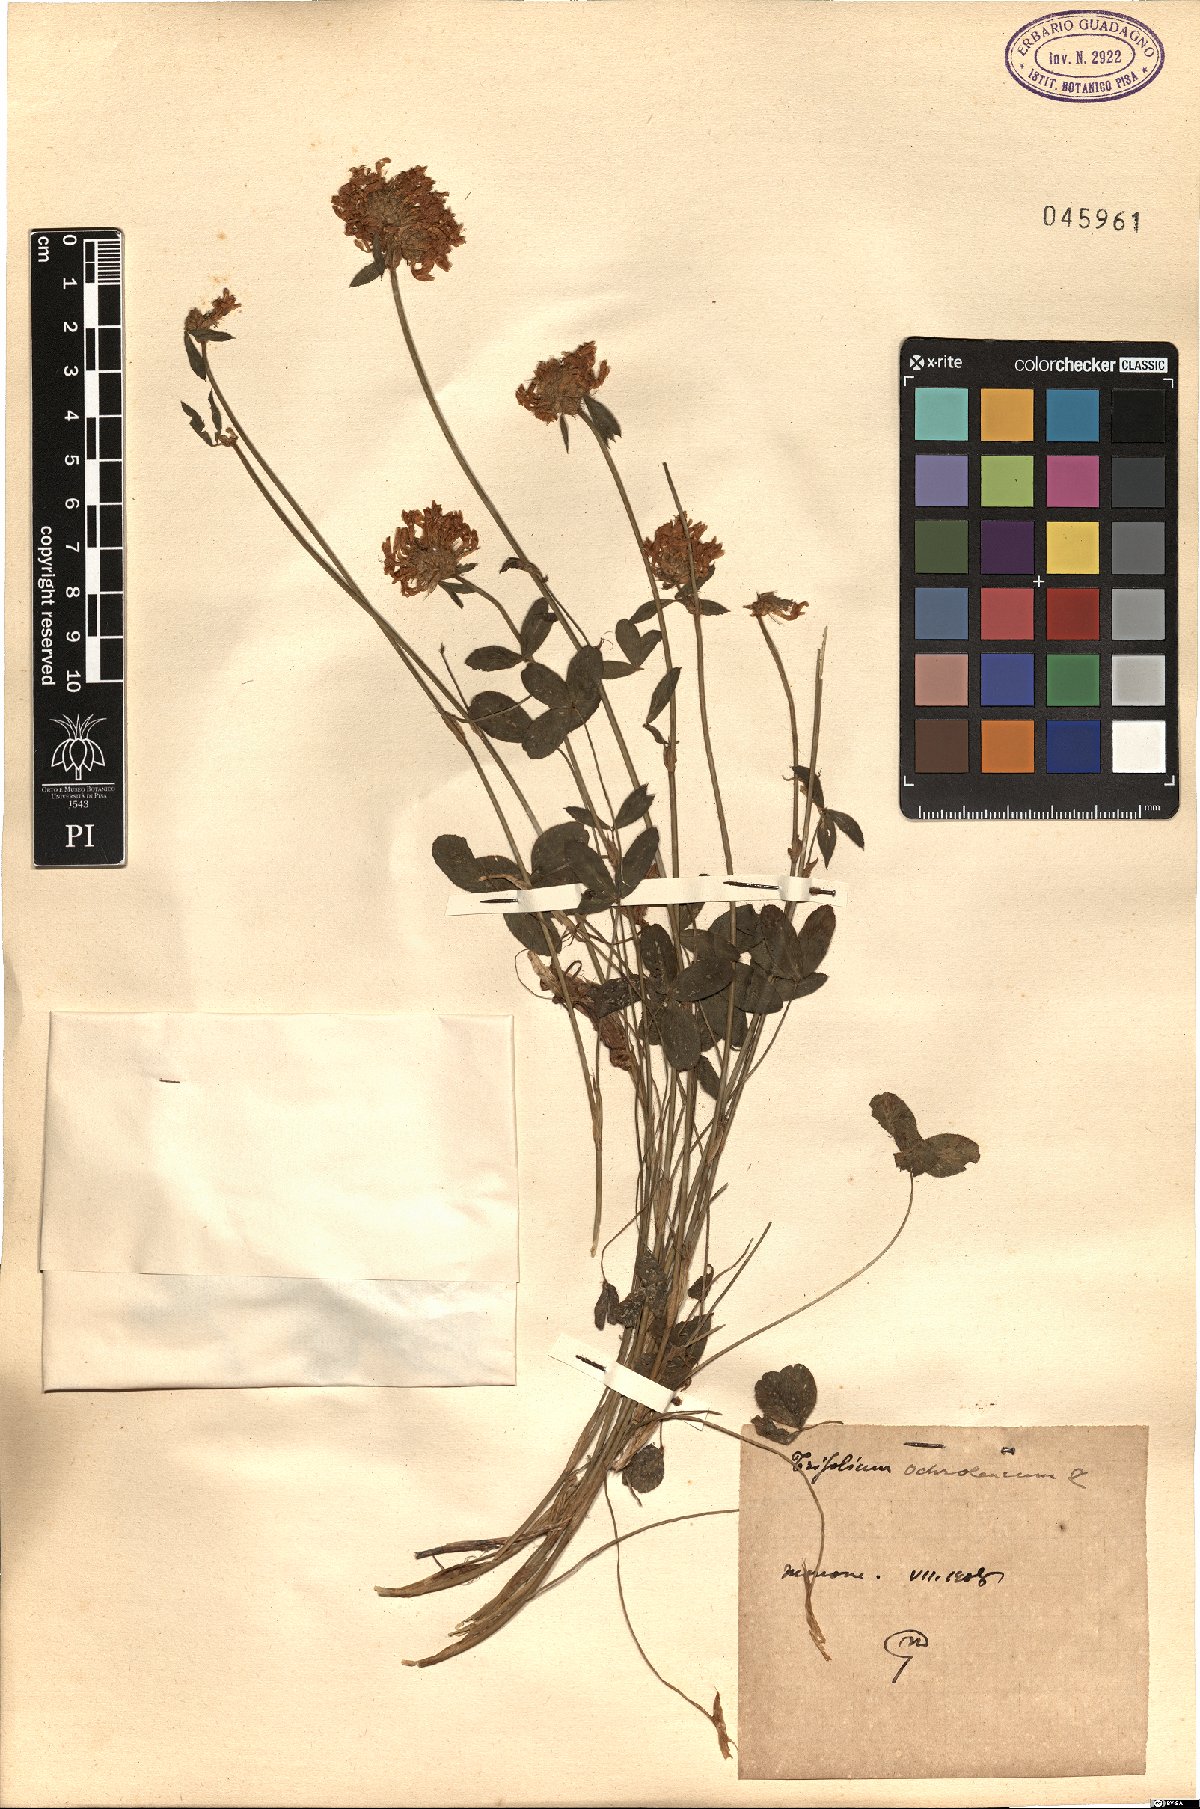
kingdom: Plantae
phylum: Tracheophyta
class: Magnoliopsida
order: Fabales
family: Fabaceae
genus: Trifolium
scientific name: Trifolium ochroleucon
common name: Sulphur clover
